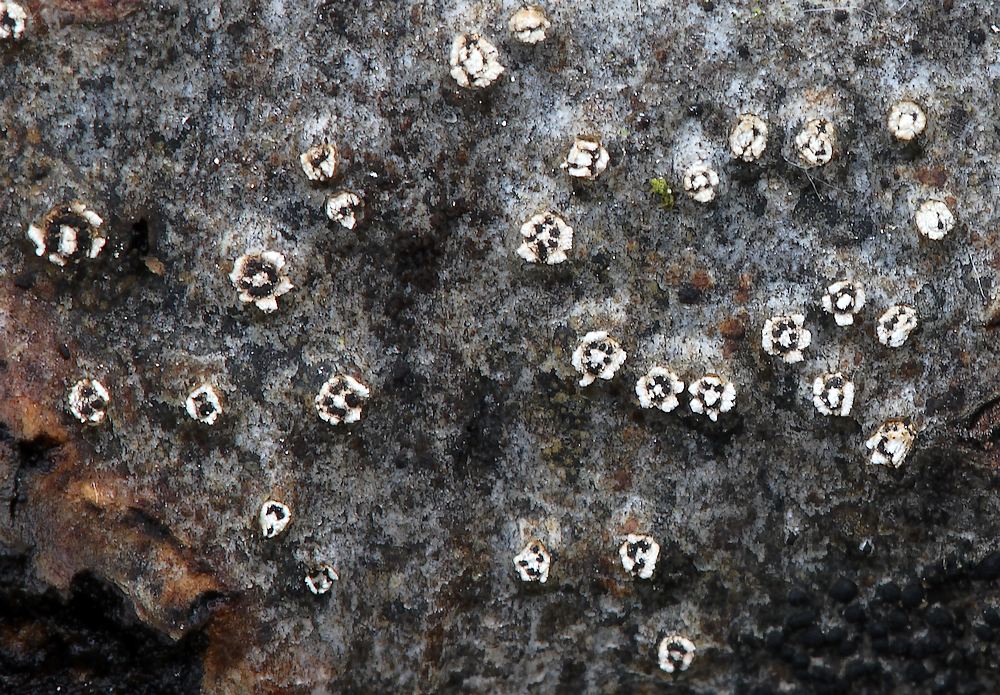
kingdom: Fungi
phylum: Ascomycota
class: Sordariomycetes
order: Diaporthales
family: Valsaceae
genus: Cytospora
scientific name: Cytospora nivea
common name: hvidskivet kulknippe
